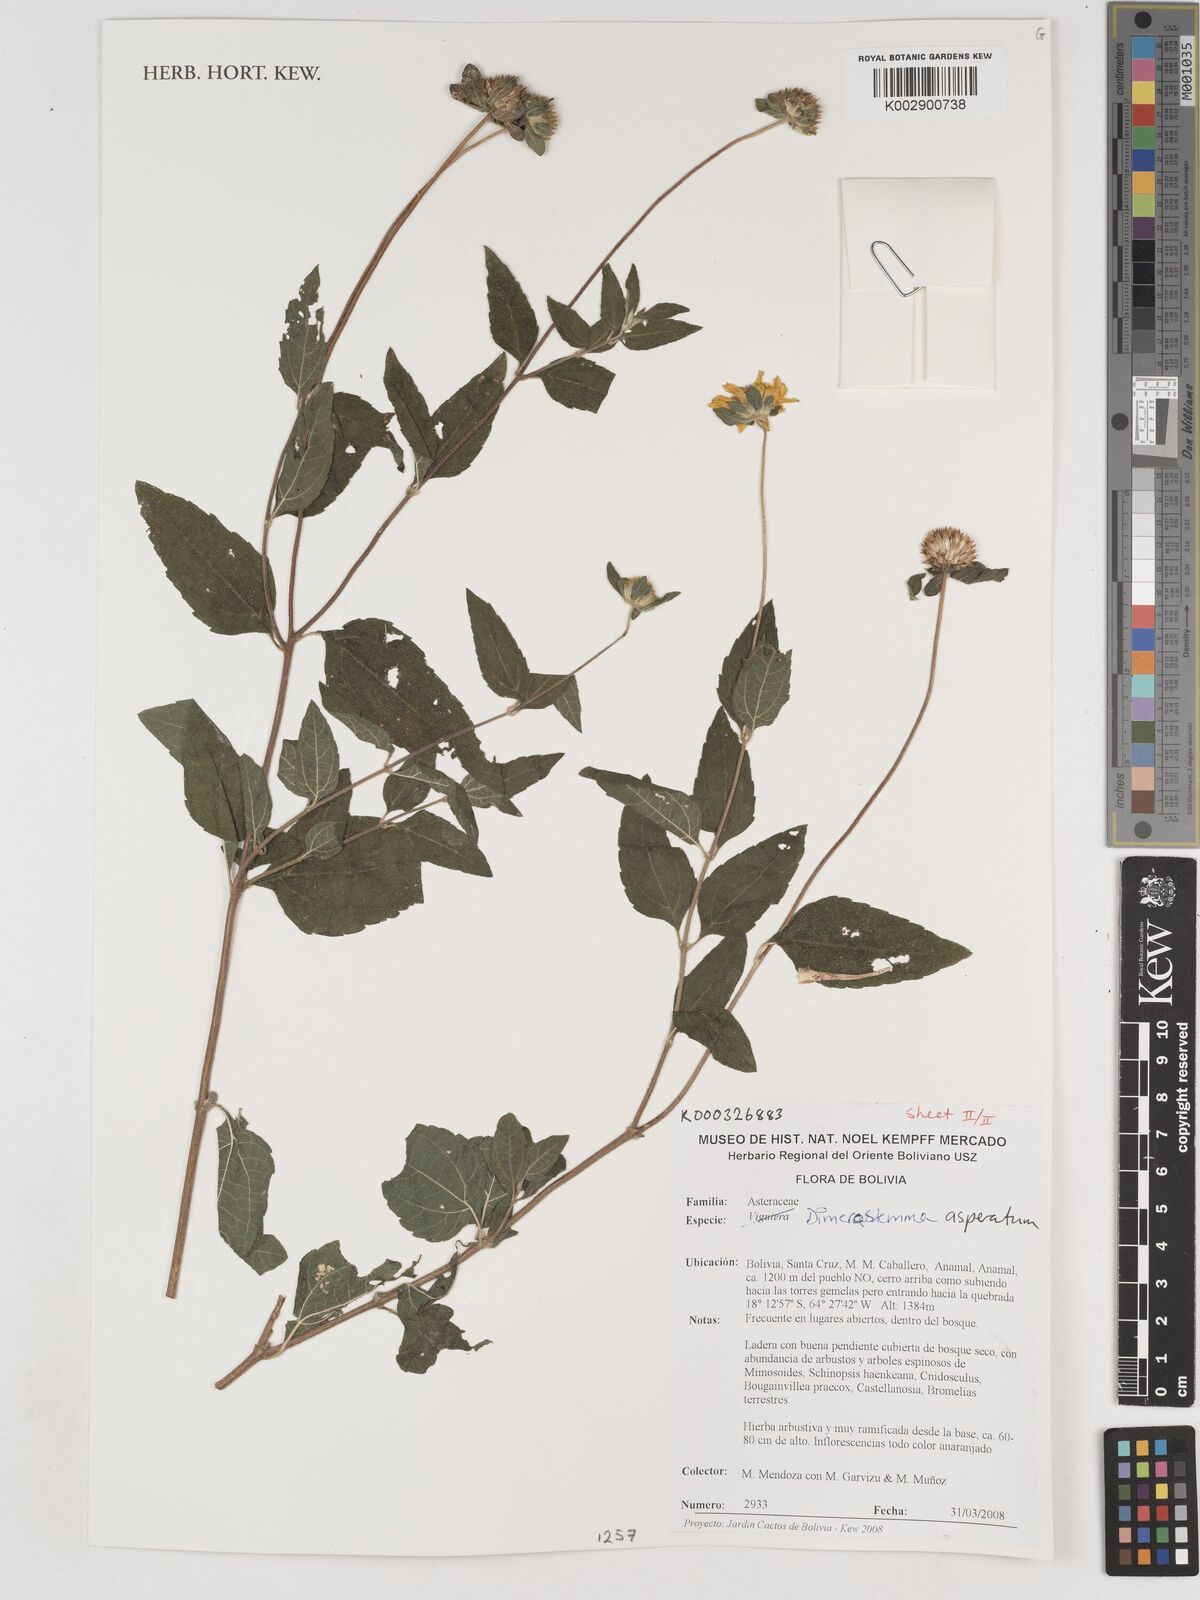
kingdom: Plantae
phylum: Tracheophyta
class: Magnoliopsida
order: Asterales
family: Asteraceae
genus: Dimerostemma
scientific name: Dimerostemma asperatum
